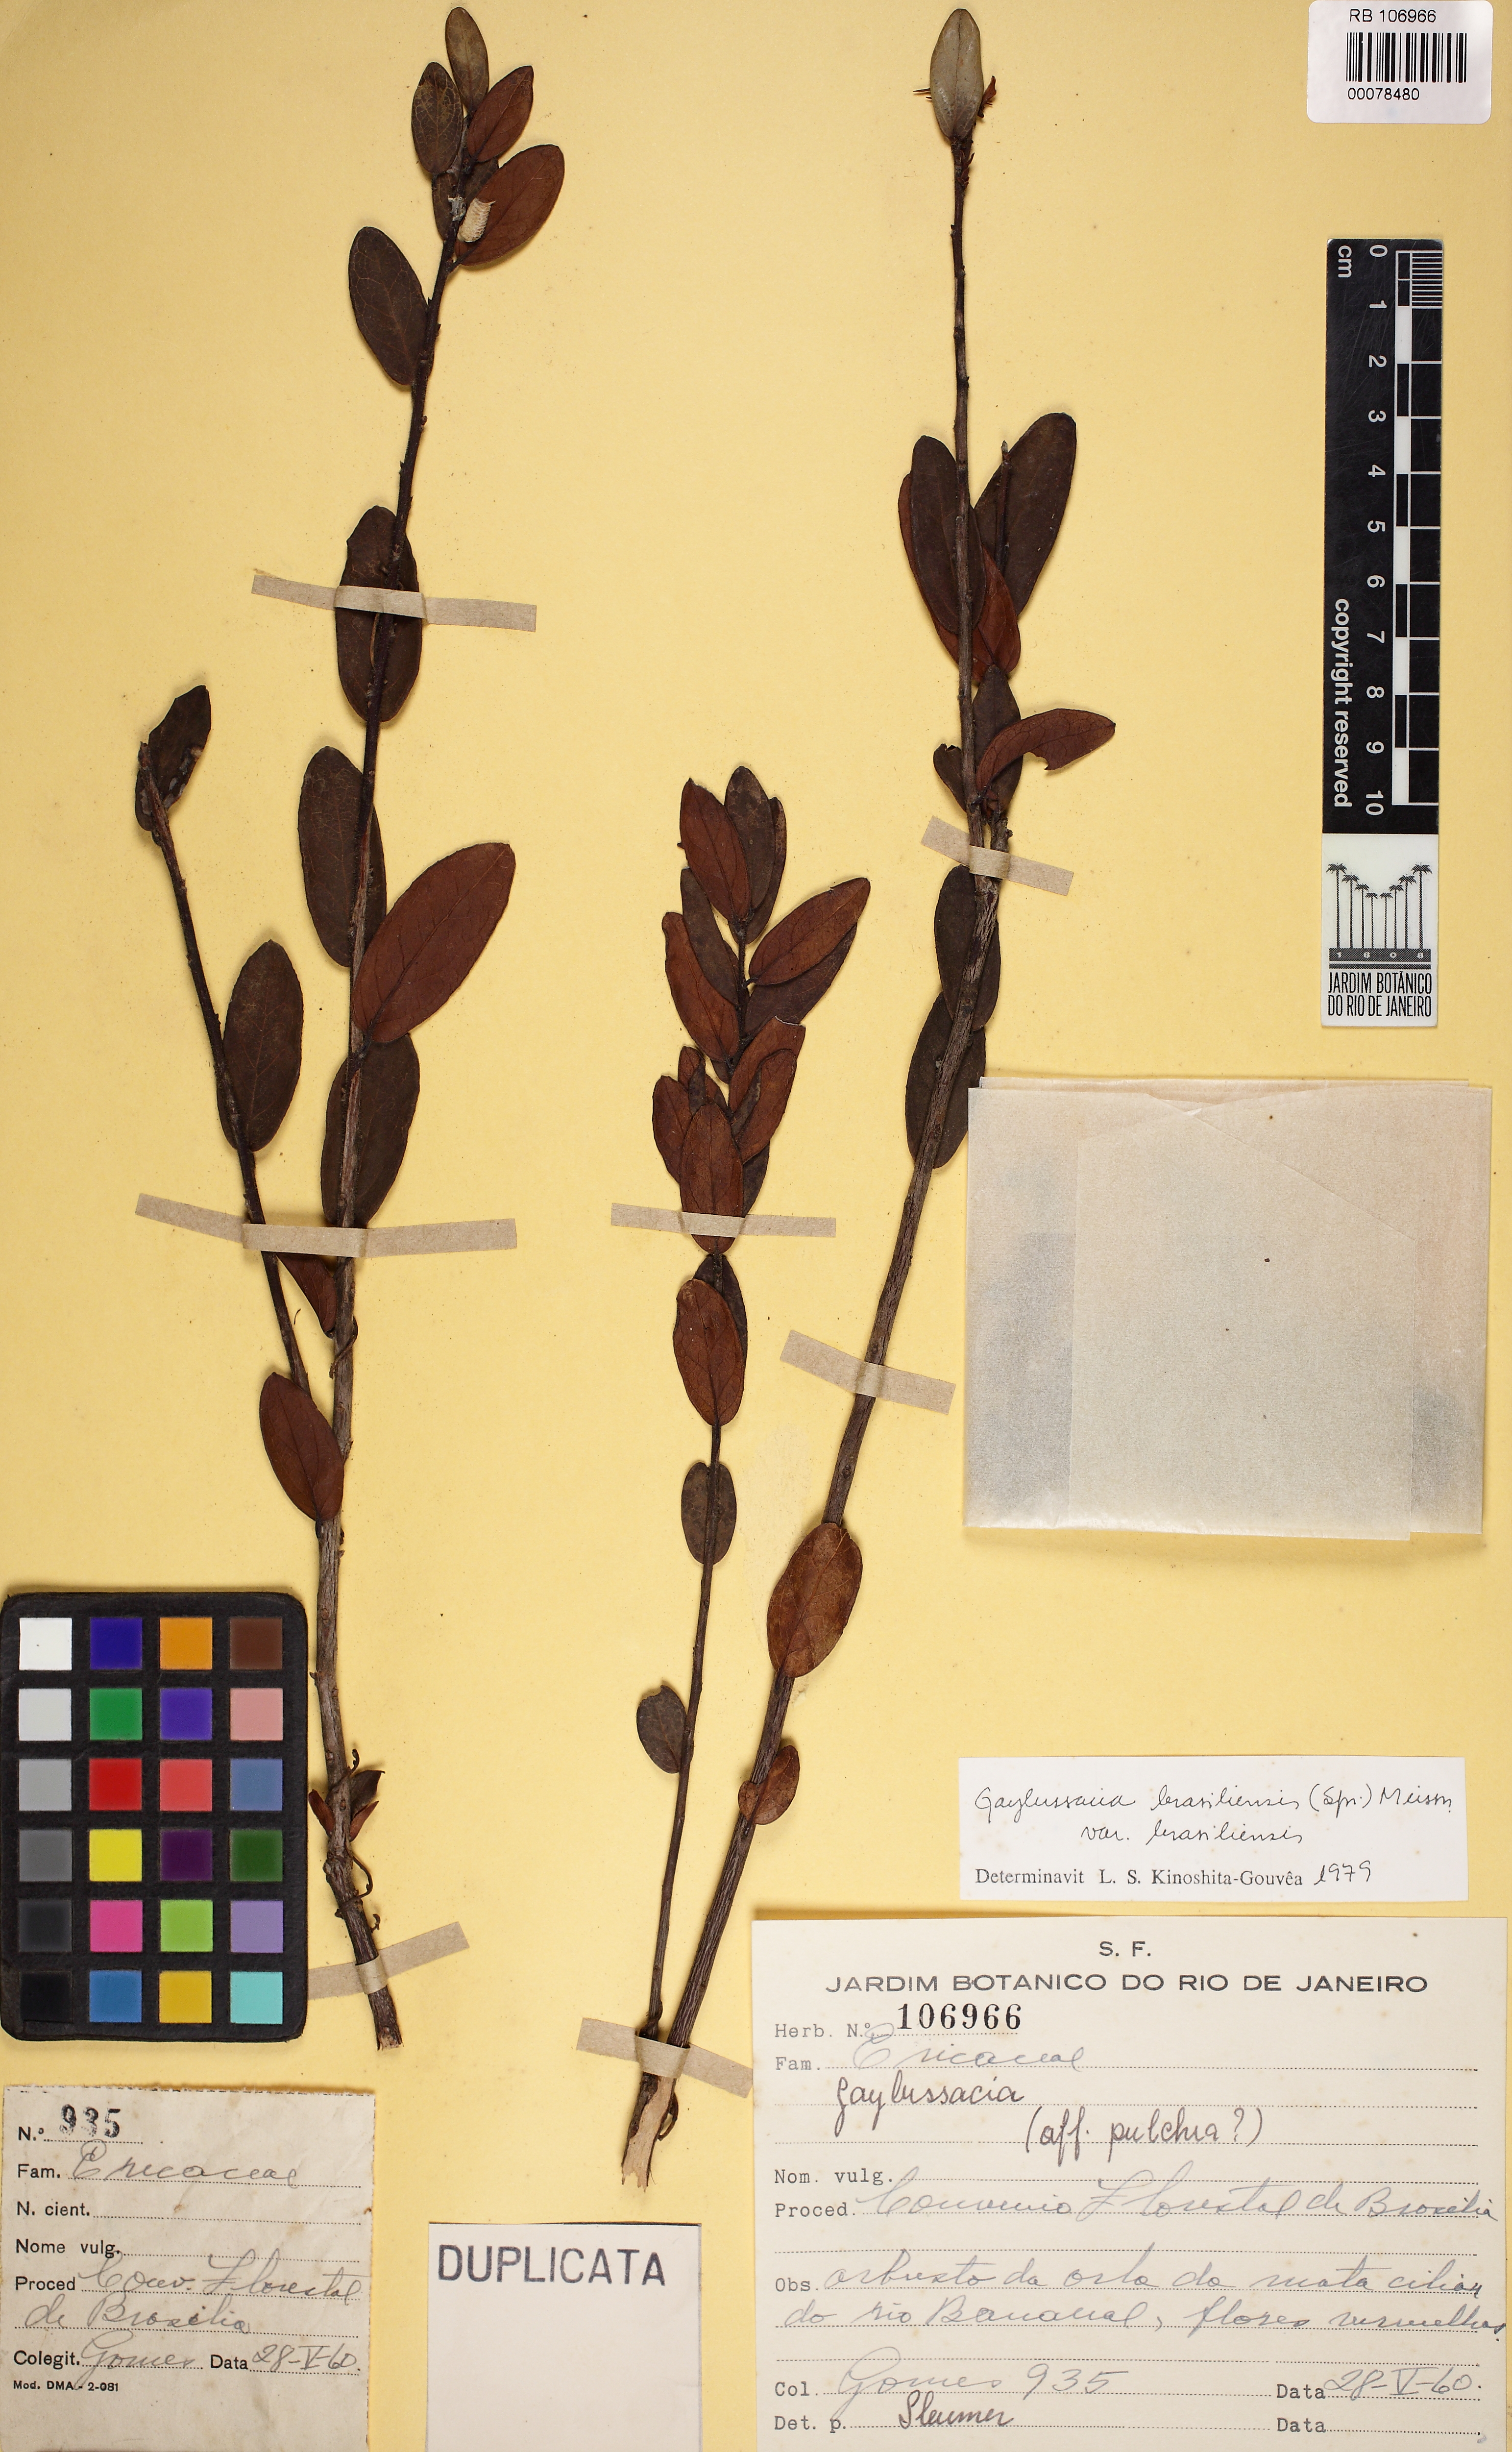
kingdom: Plantae
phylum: Tracheophyta
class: Magnoliopsida
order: Ericales
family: Ericaceae
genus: Gaylussacia
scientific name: Gaylussacia brasiliensis
